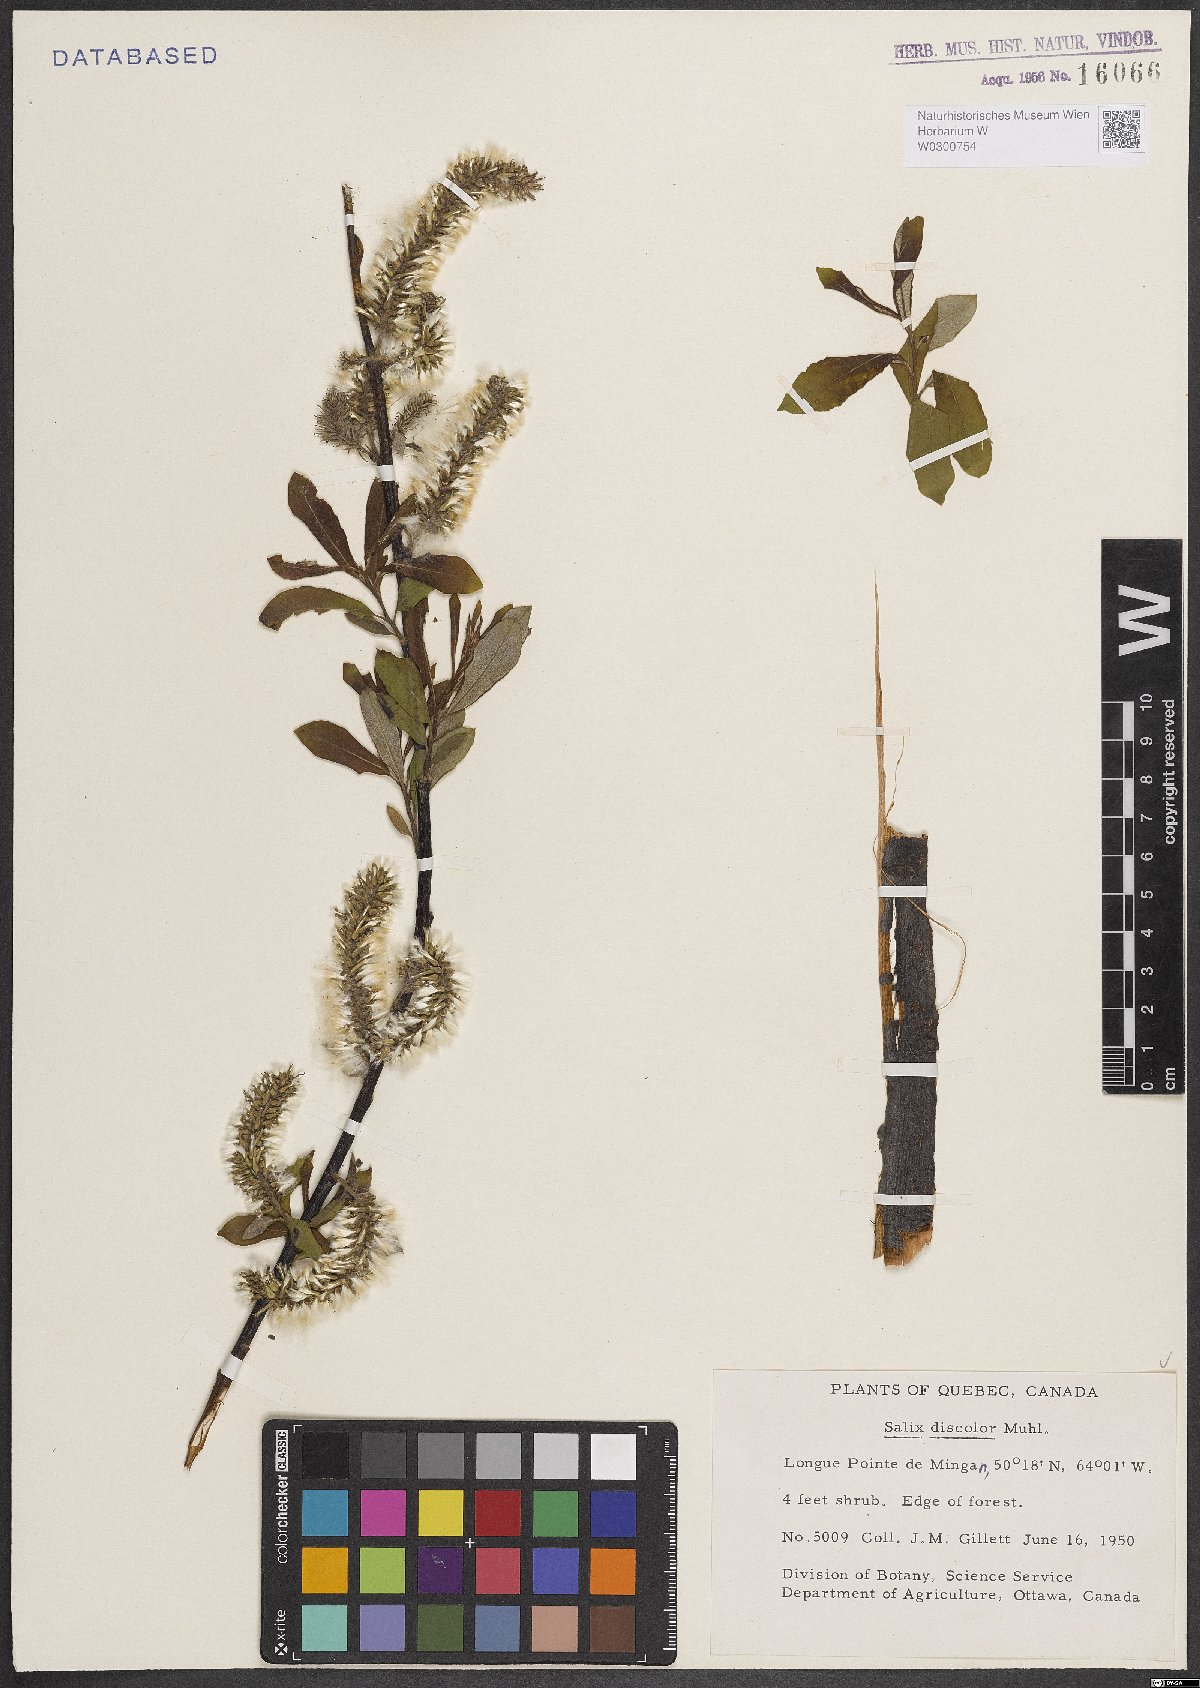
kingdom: Plantae
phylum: Tracheophyta
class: Magnoliopsida
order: Malpighiales
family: Salicaceae
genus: Salix
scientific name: Salix discolor
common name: Glaucous willow
